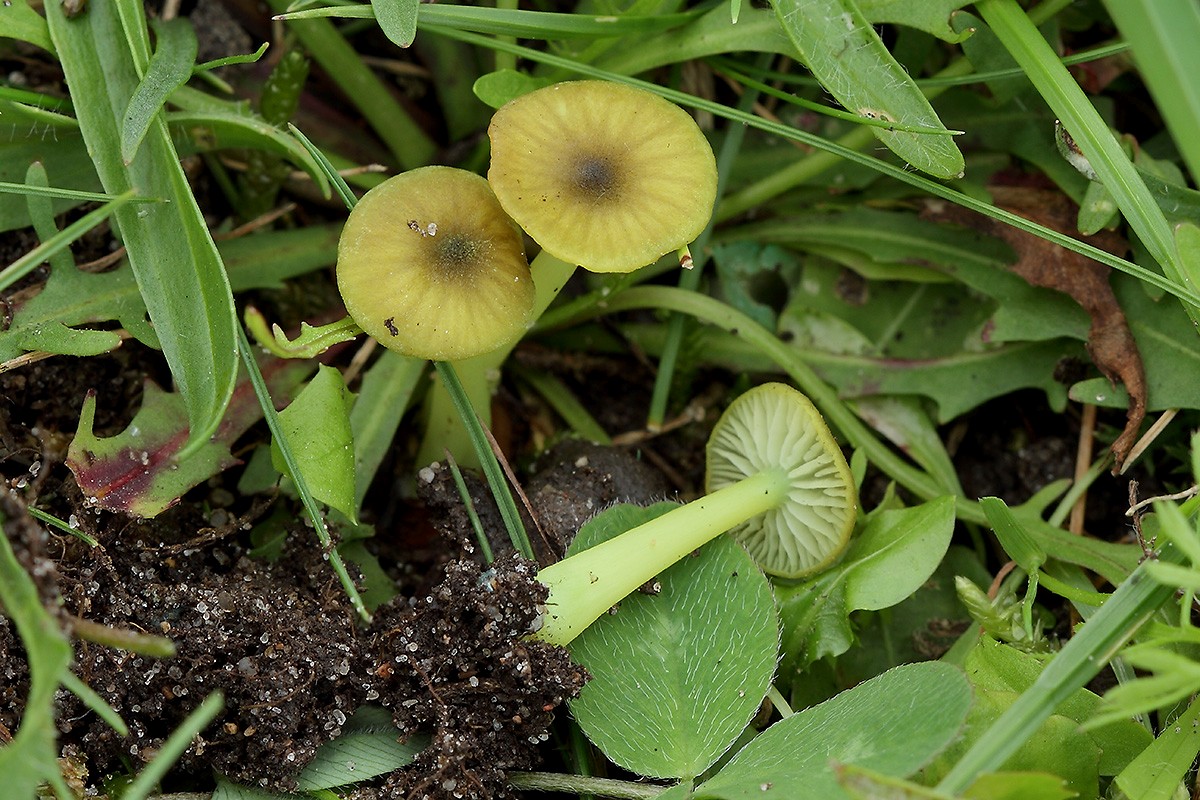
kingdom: Fungi
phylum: Basidiomycota
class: Agaricomycetes
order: Agaricales
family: Entolomataceae
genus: Entoloma
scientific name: Entoloma incanum
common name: grøngul rødblad
